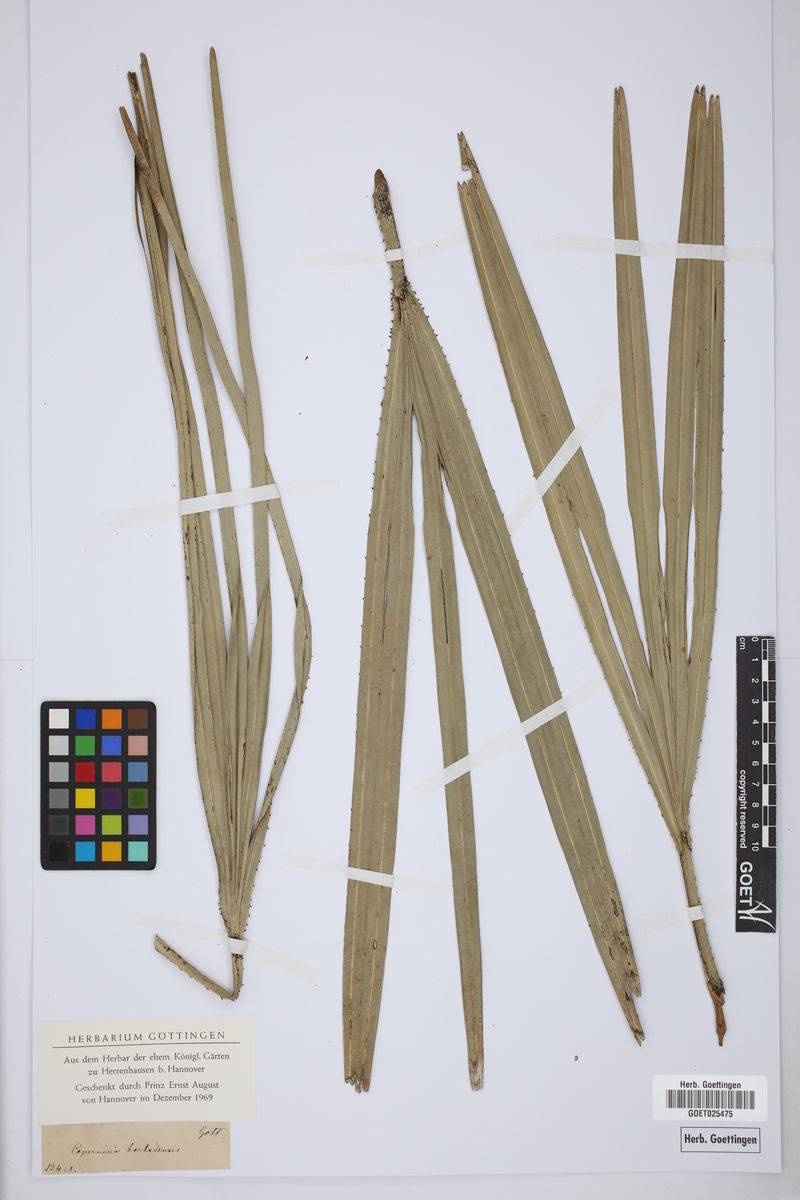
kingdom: Plantae
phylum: Tracheophyta
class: Liliopsida
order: Arecales
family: Arecaceae
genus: Coccothrinax
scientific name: Coccothrinax barbadensis
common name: Thatch palm
